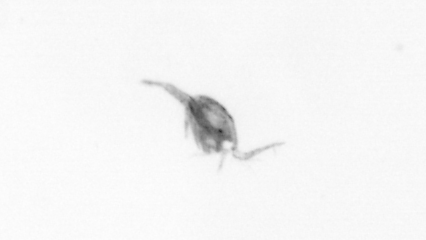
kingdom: Animalia
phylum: Arthropoda
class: Copepoda
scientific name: Copepoda
